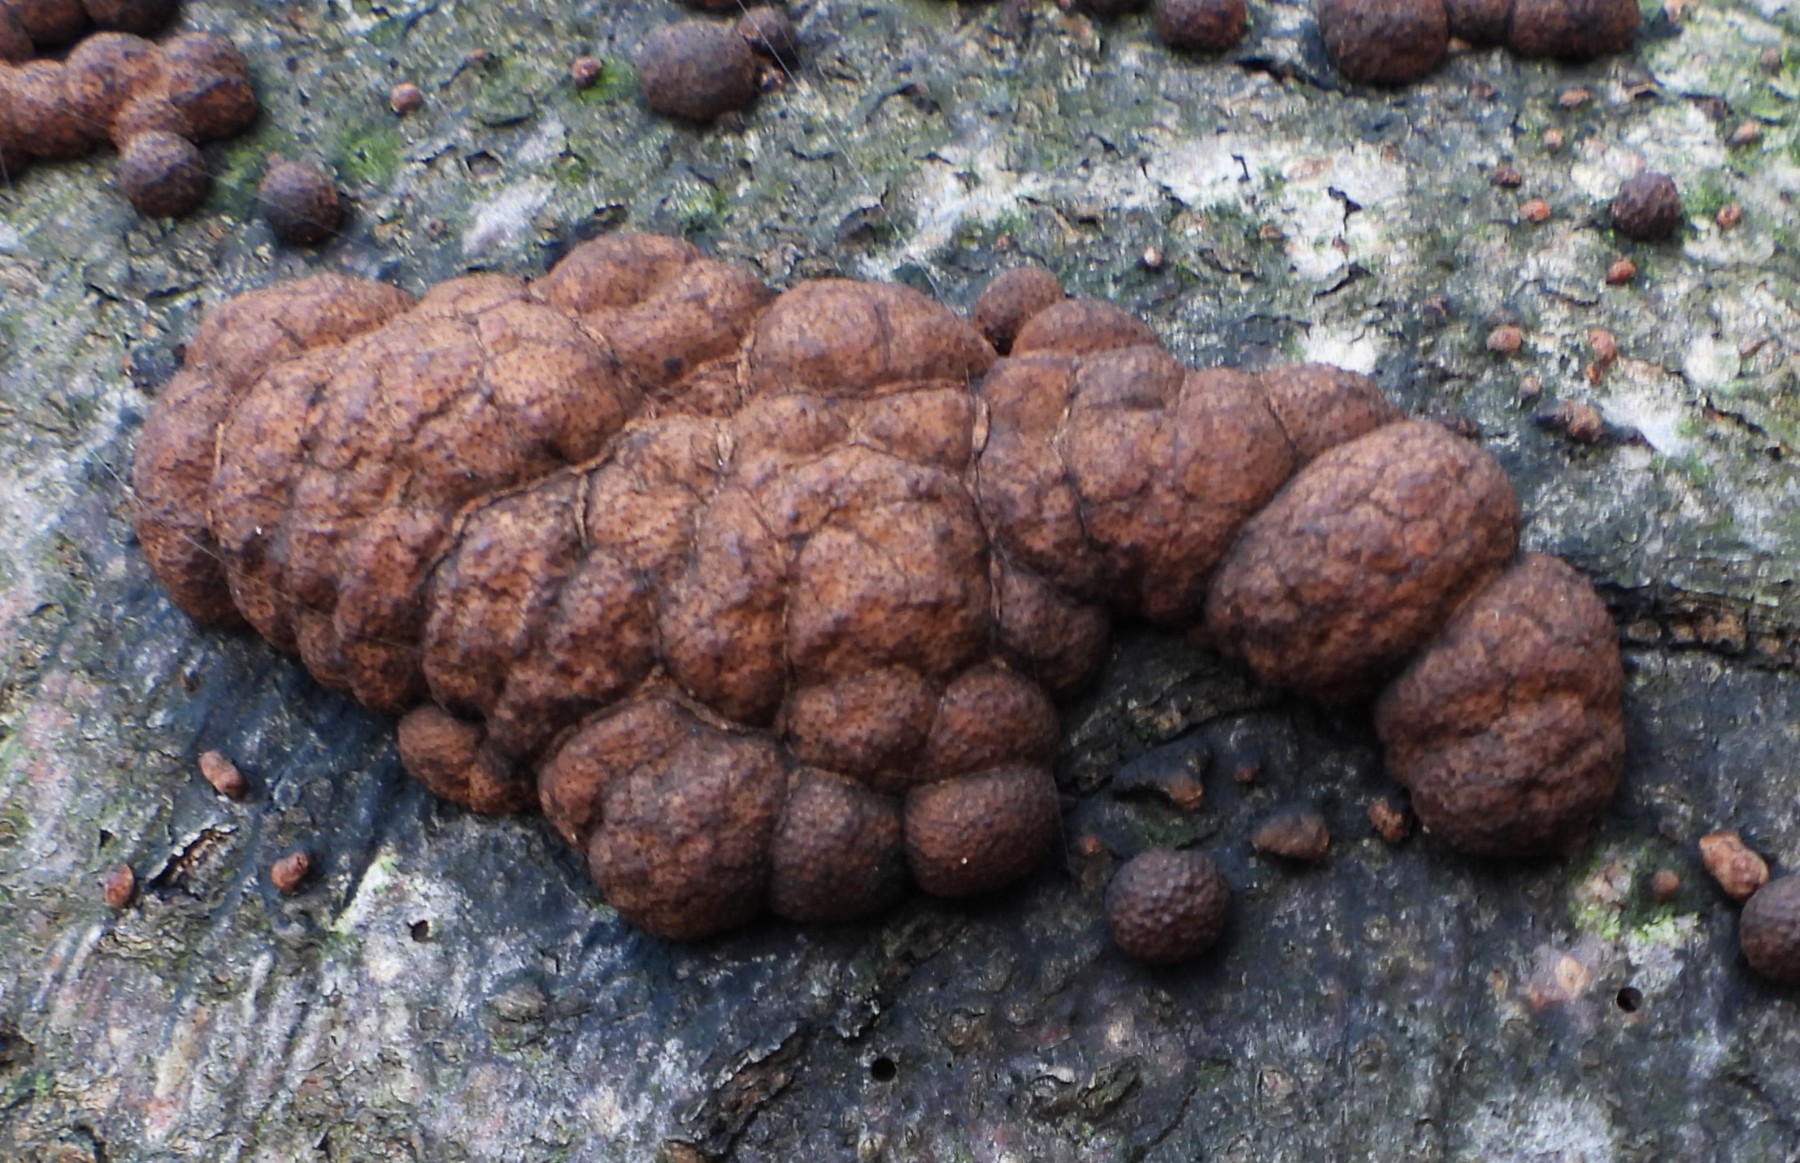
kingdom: Fungi
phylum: Ascomycota
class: Sordariomycetes
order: Xylariales
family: Hypoxylaceae
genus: Hypoxylon
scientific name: Hypoxylon fragiforme
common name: kuljordbær
